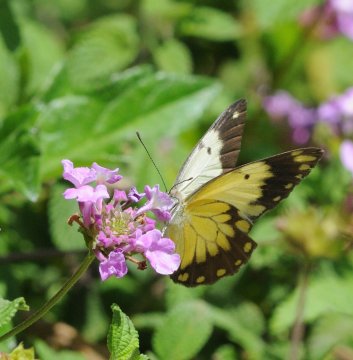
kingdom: Animalia
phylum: Arthropoda
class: Insecta
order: Lepidoptera
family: Pieridae
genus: Belenois
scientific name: Belenois creona
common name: African Caper
